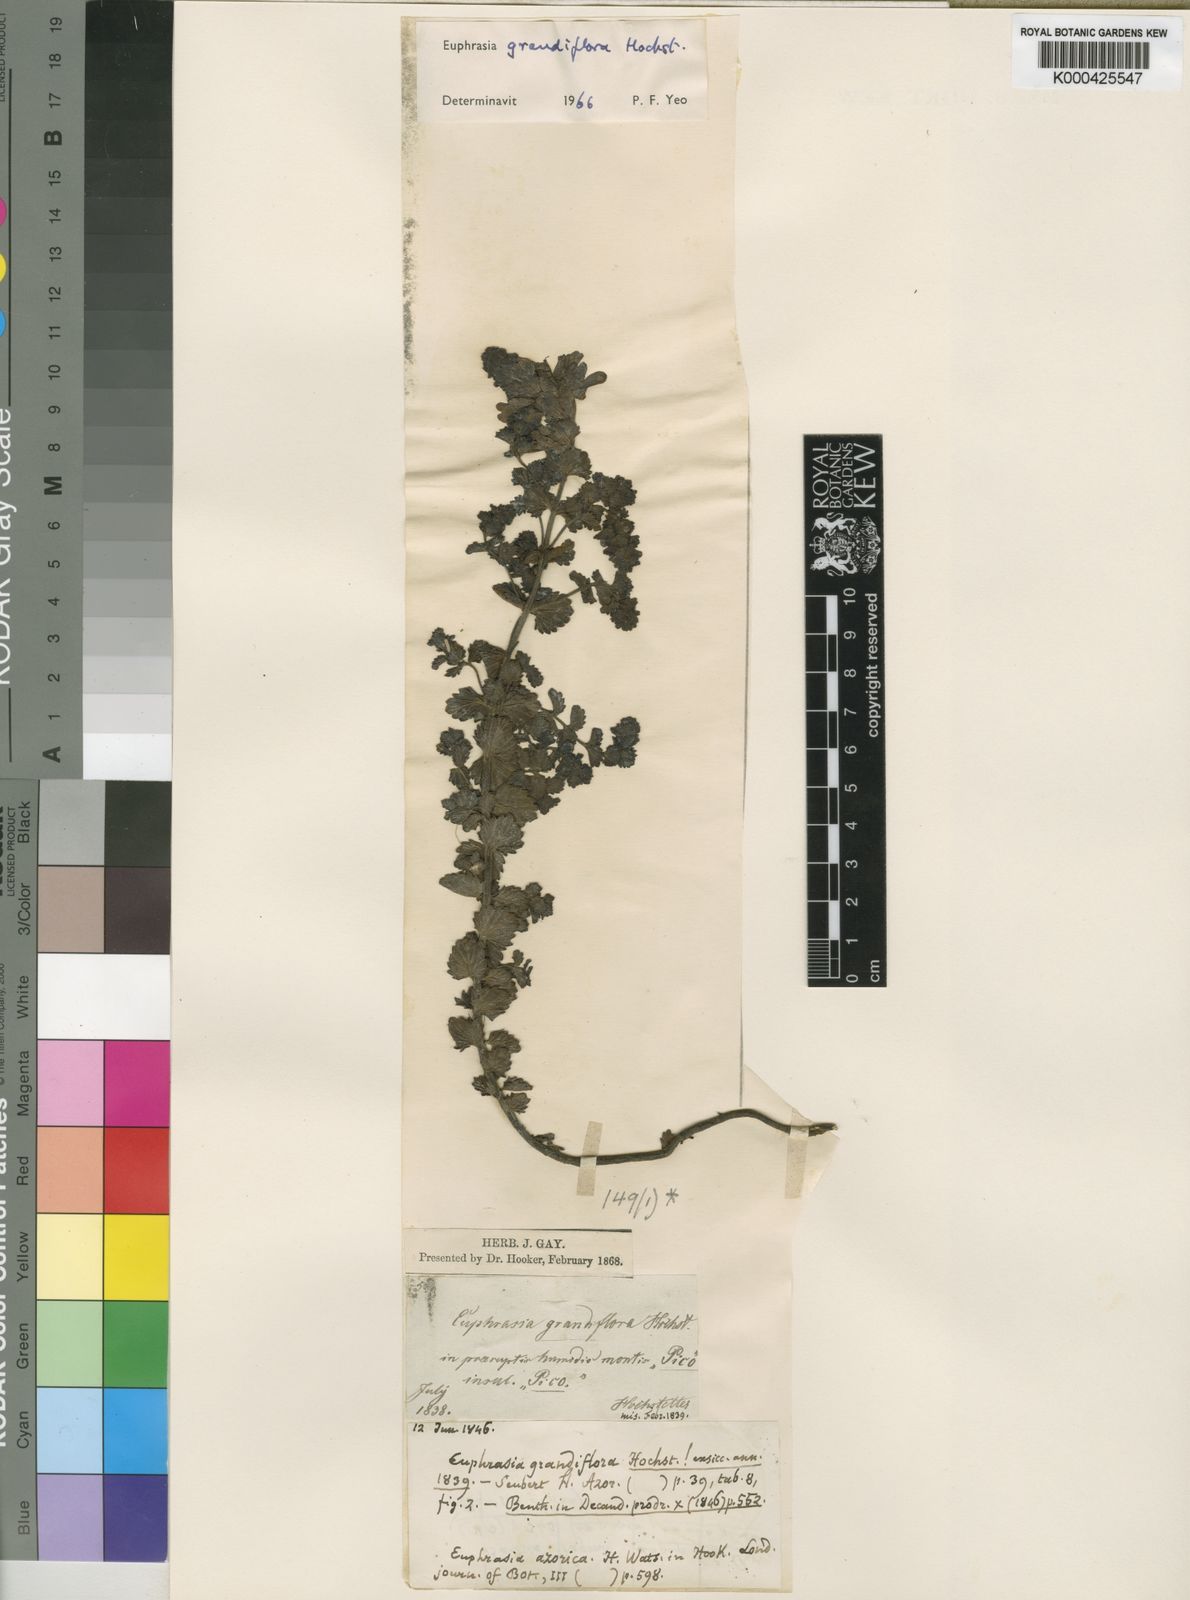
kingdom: Plantae
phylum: Tracheophyta
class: Magnoliopsida
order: Lamiales
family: Orobanchaceae
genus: Euphrasia
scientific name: Euphrasia grandiflora
